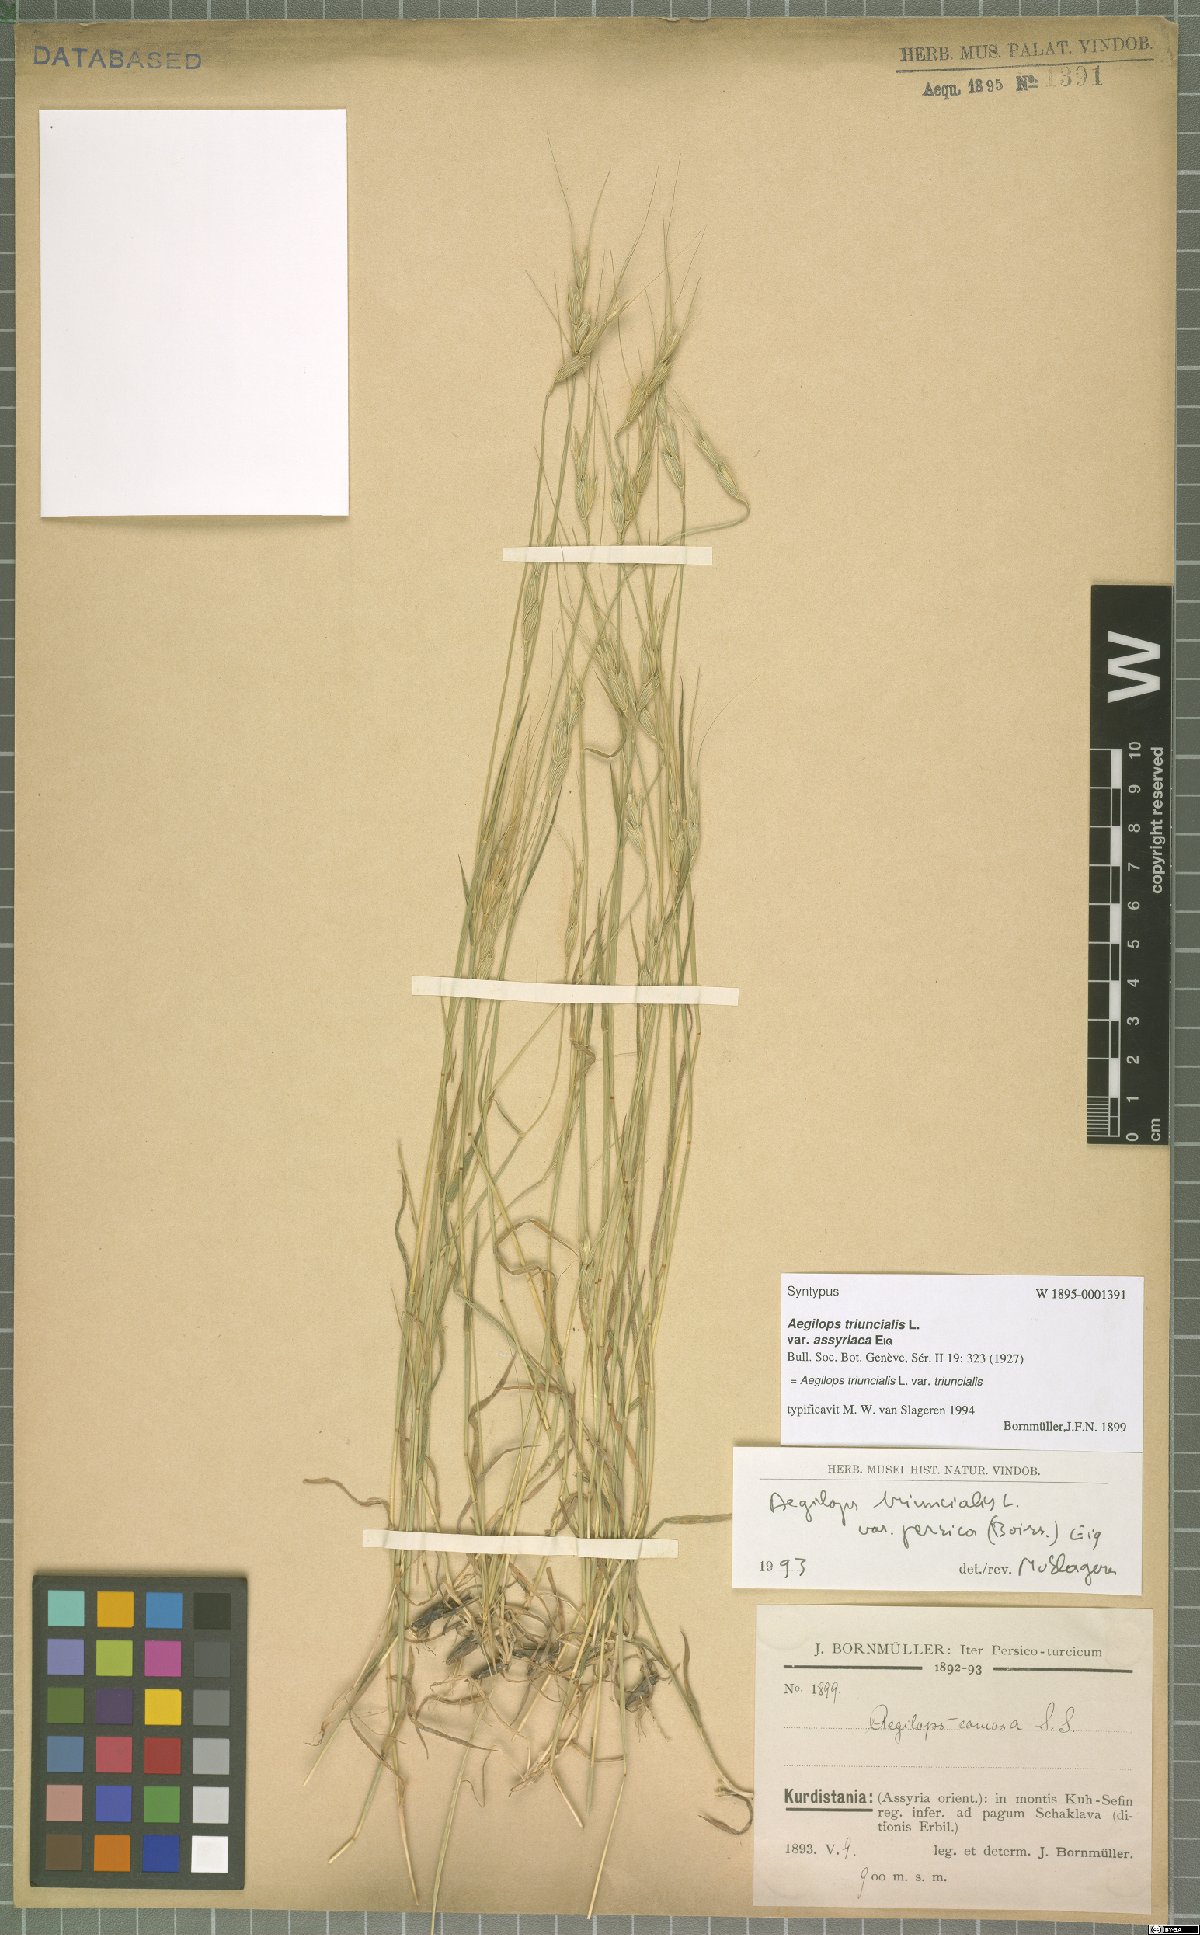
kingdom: Plantae
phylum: Tracheophyta
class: Liliopsida
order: Poales
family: Poaceae
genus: Aegilops
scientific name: Aegilops triuncialis
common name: Barb goat grass
